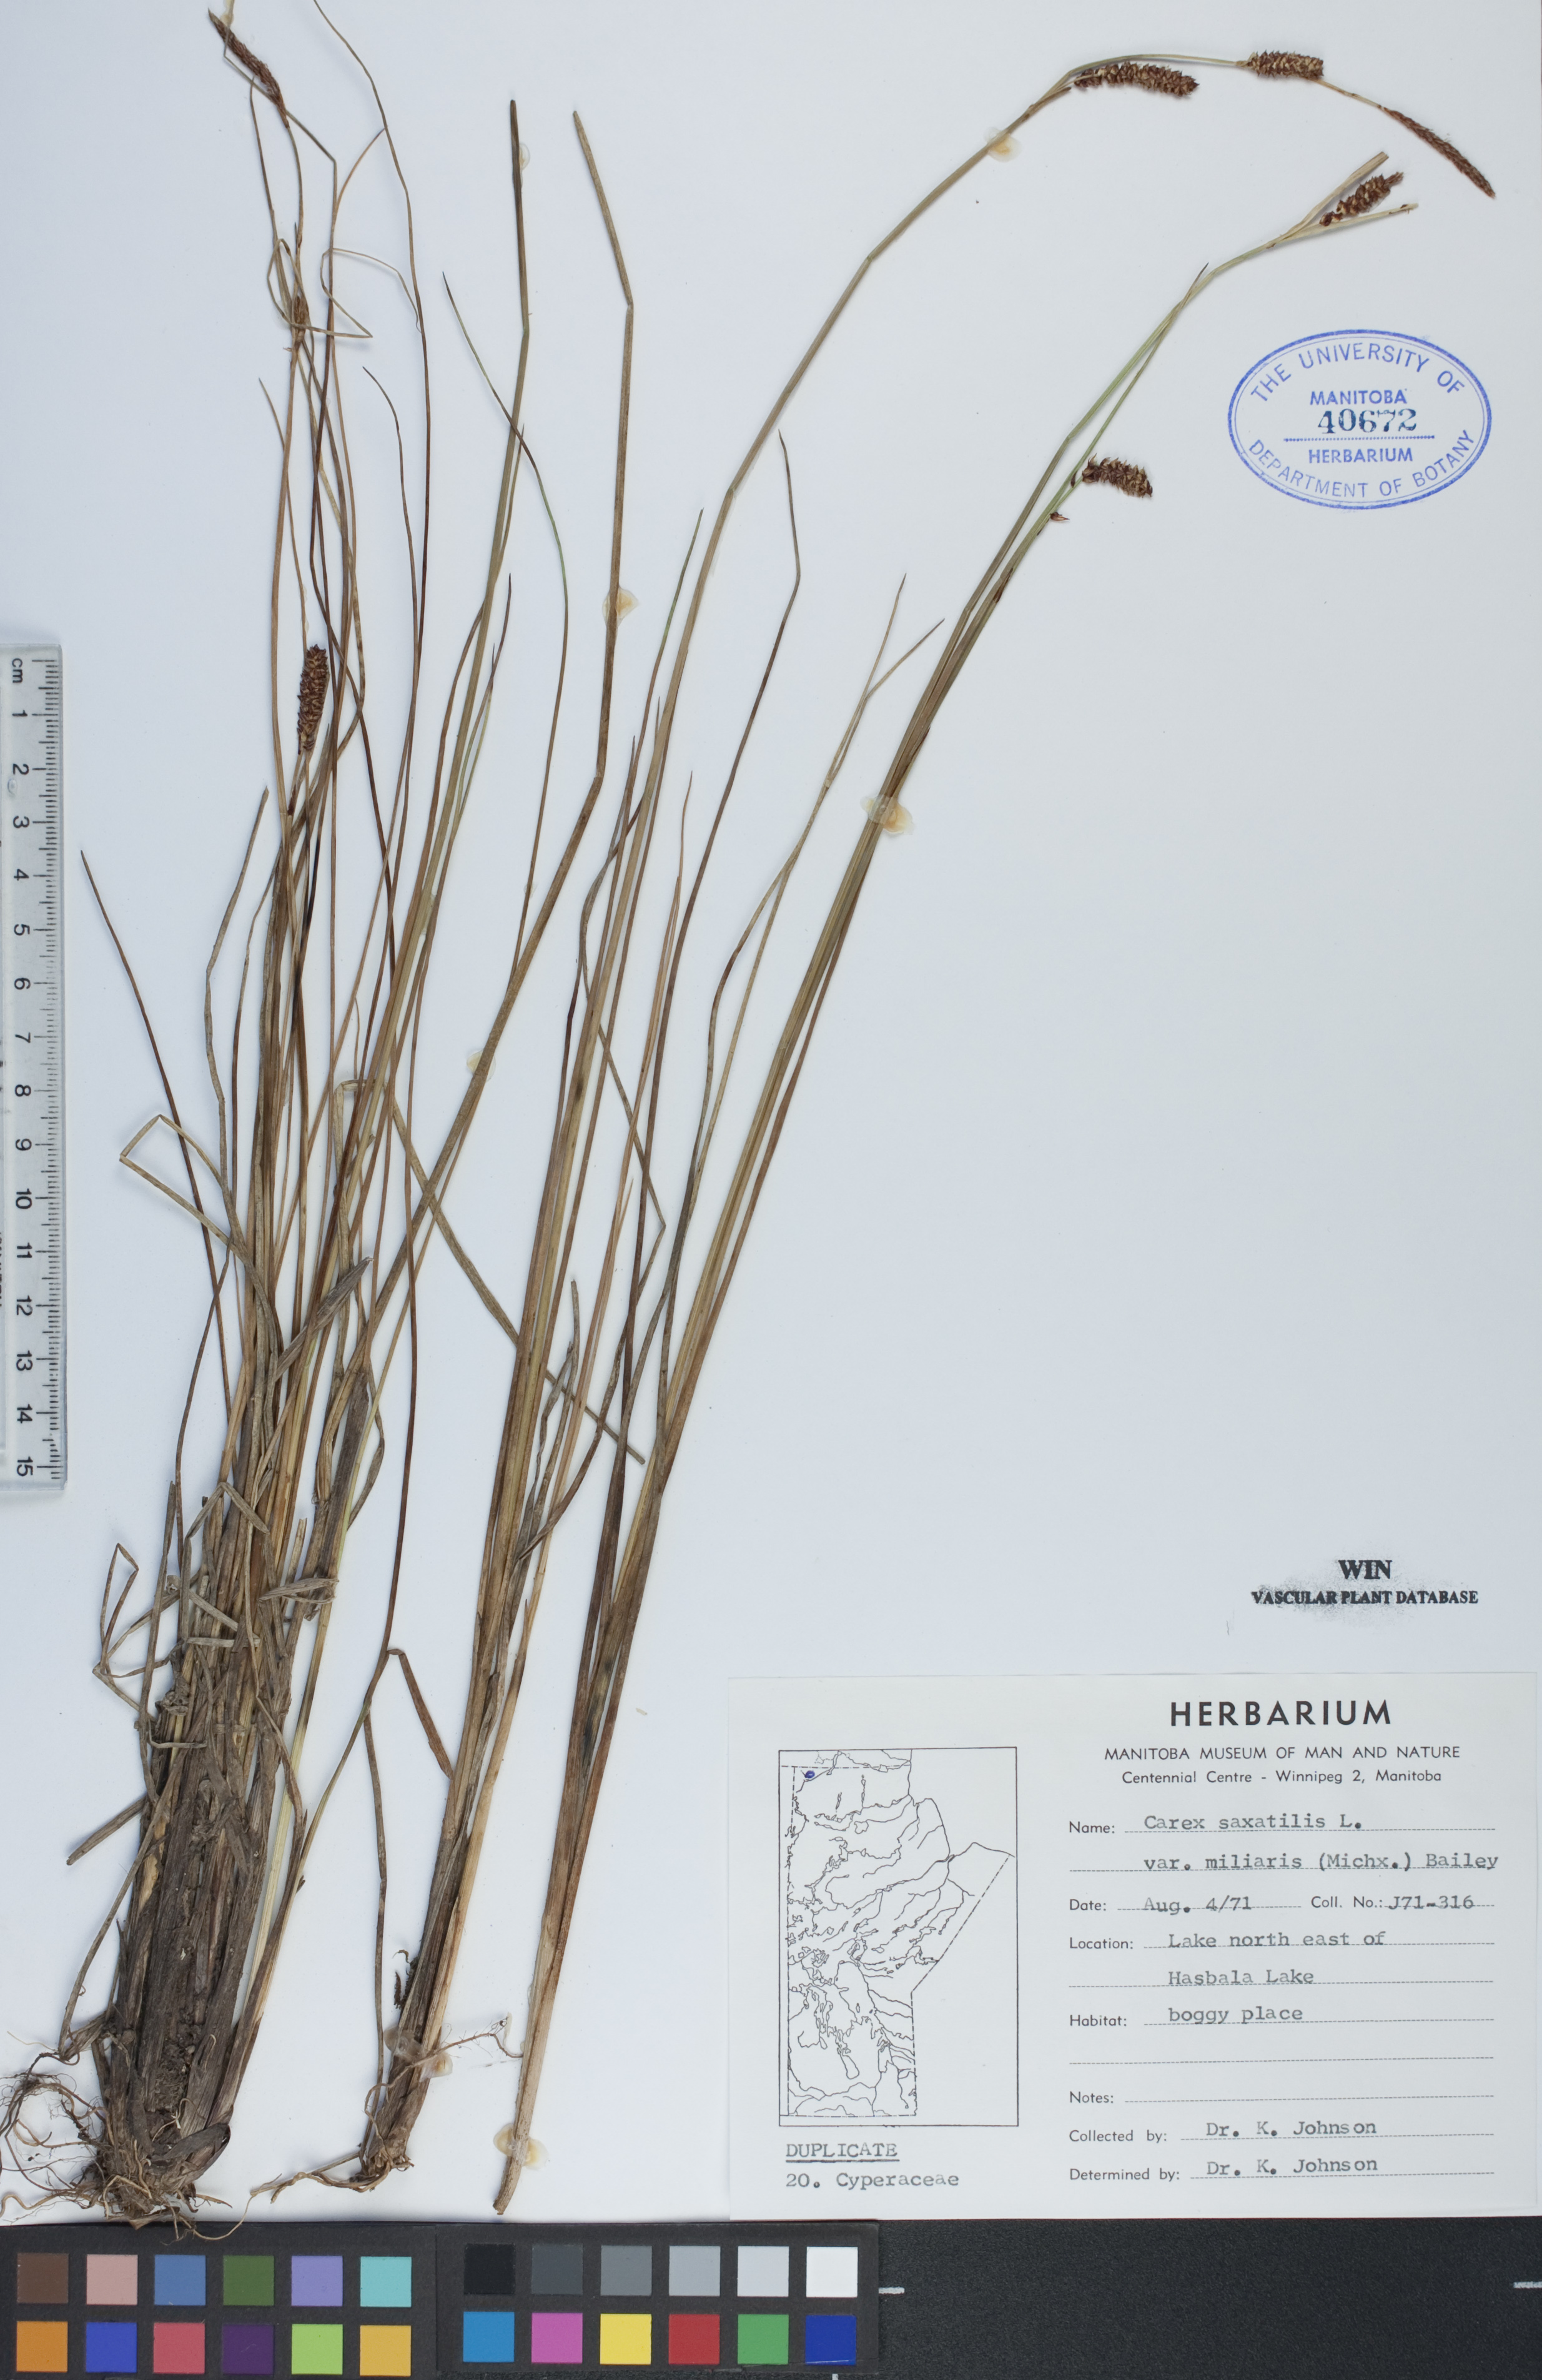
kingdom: Plantae
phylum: Tracheophyta
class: Liliopsida
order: Poales
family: Cyperaceae
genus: Carex
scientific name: Carex miliaris
